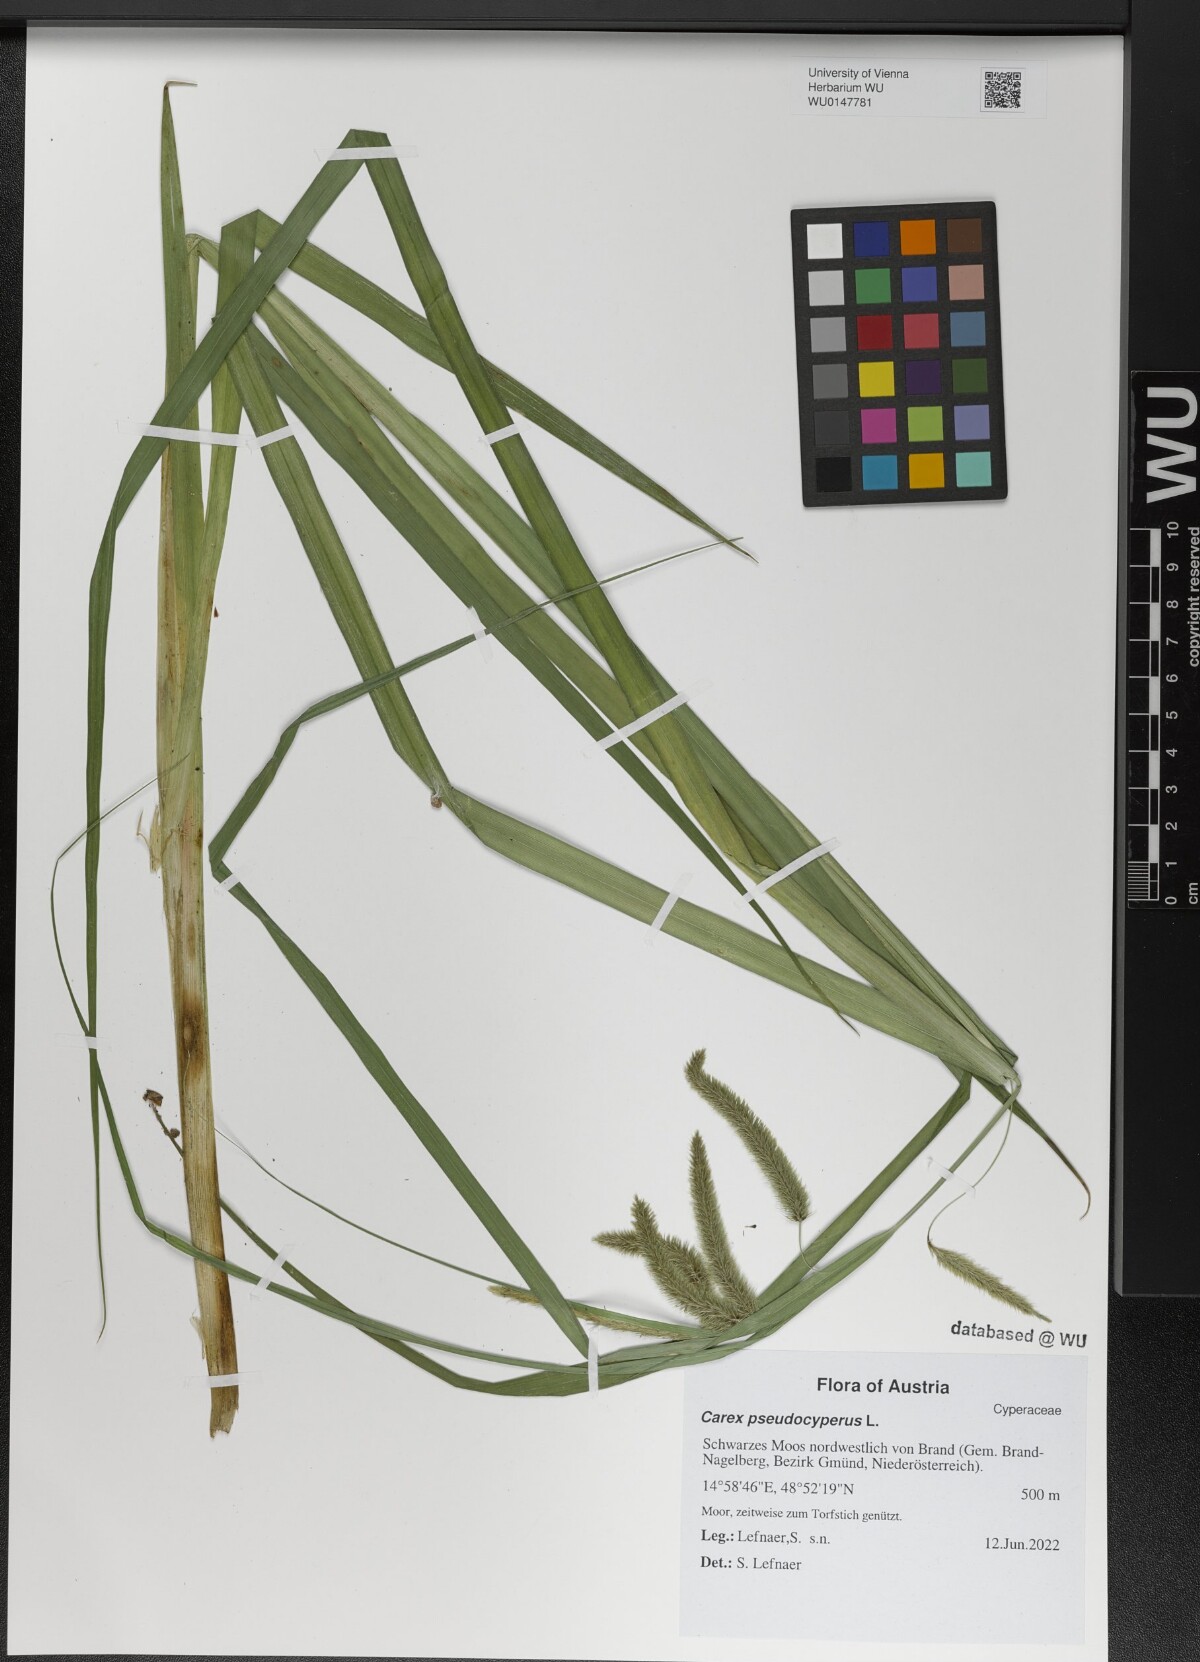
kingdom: Plantae
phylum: Tracheophyta
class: Liliopsida
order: Poales
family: Cyperaceae
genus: Carex
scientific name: Carex pseudocyperus
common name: Cyperus sedge
